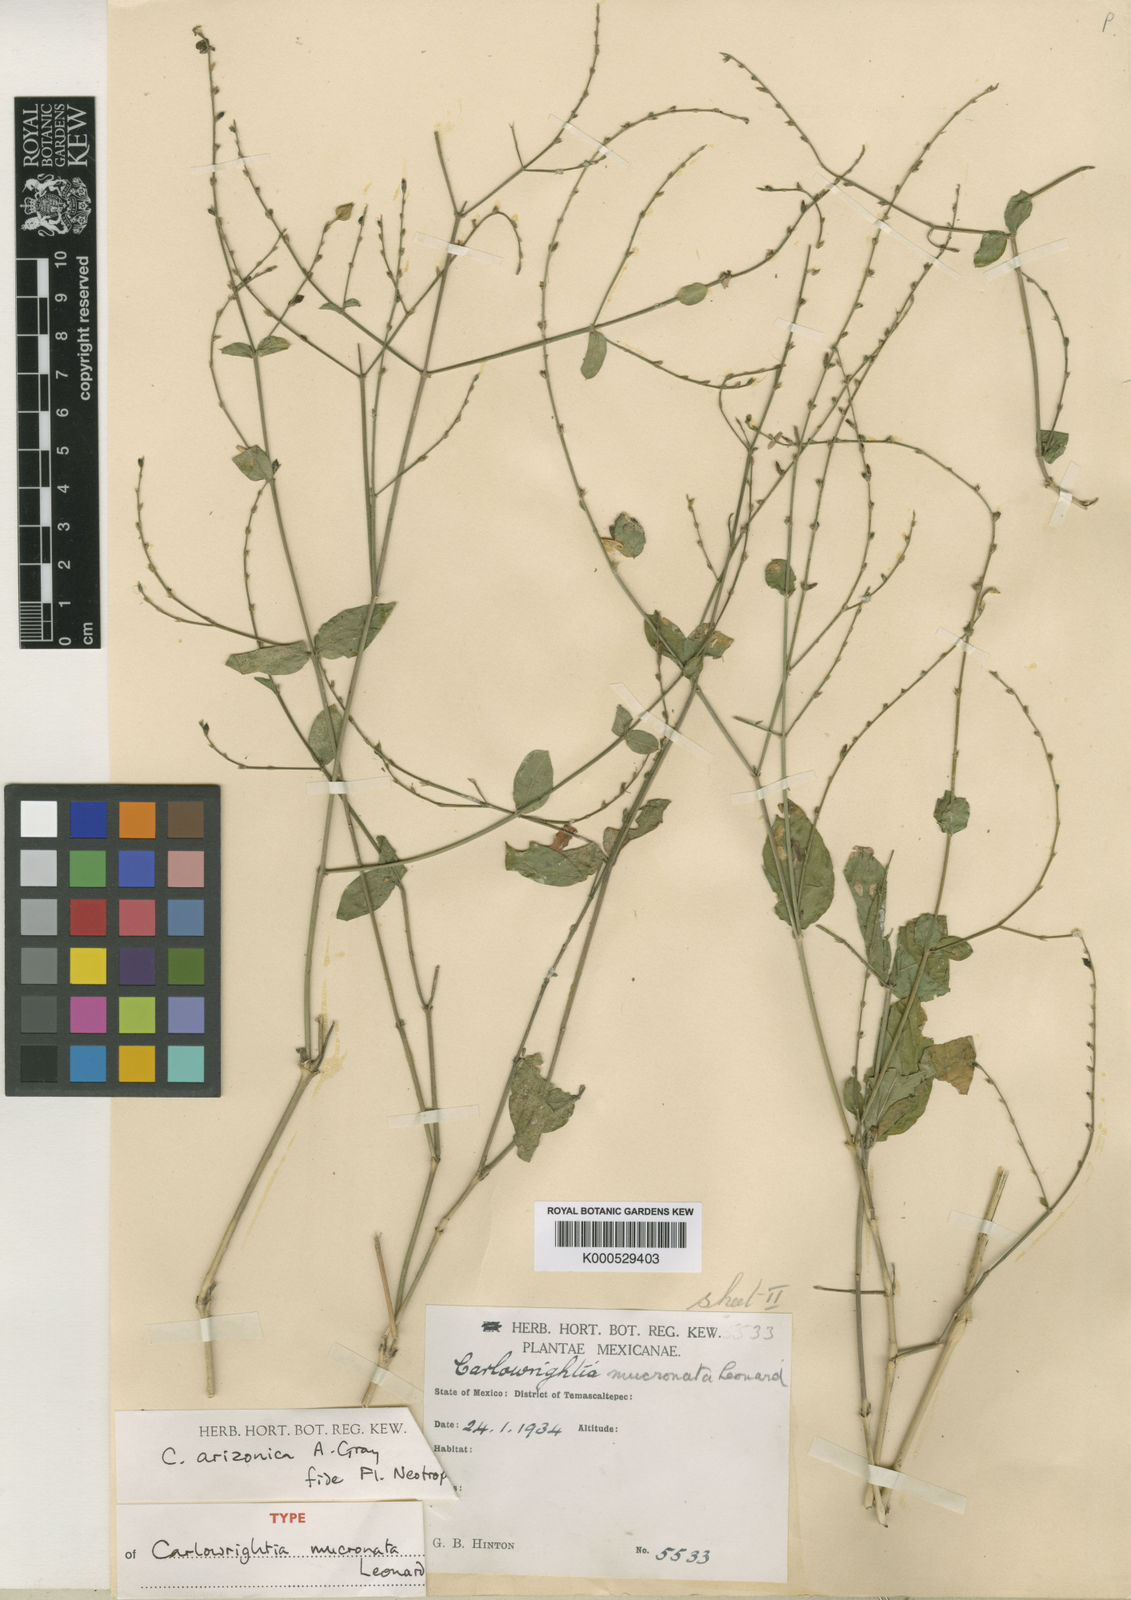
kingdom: Plantae
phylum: Tracheophyta
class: Magnoliopsida
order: Lamiales
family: Acanthaceae
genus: Carlowrightia
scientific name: Carlowrightia arizonica
